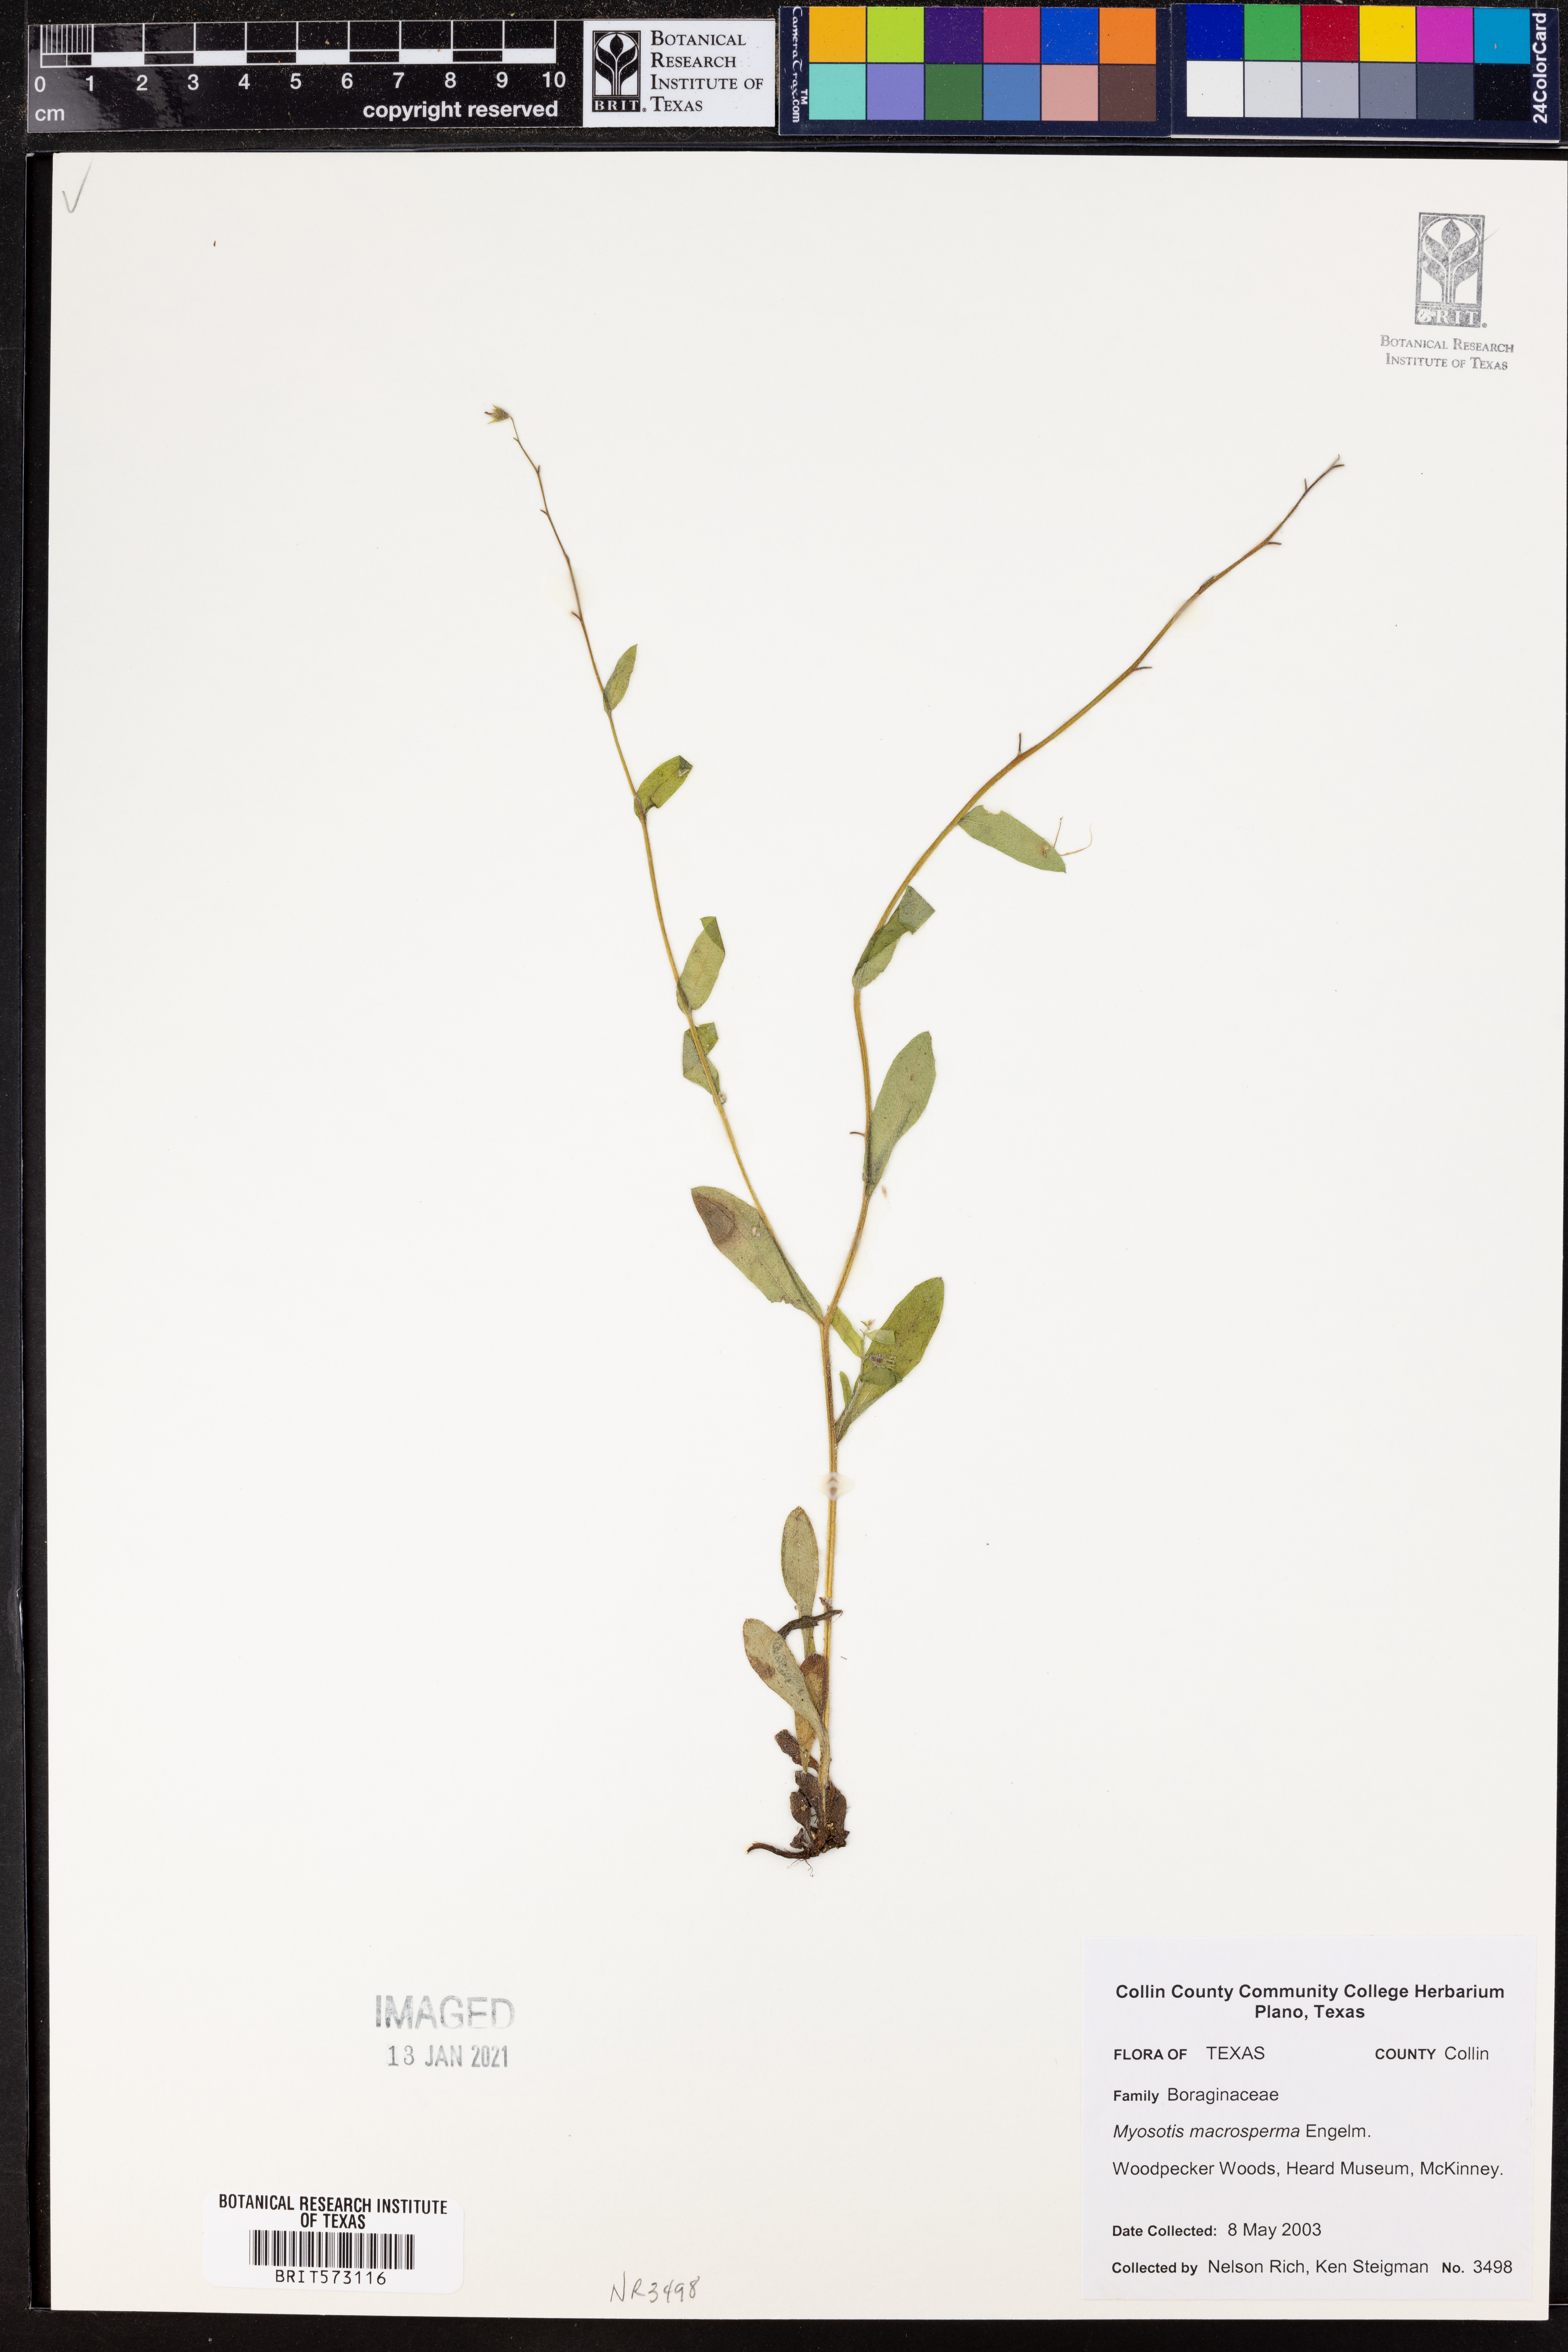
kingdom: Plantae
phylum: Tracheophyta
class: Magnoliopsida
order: Boraginales
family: Boraginaceae
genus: Myosotis
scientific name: Myosotis macrosperma
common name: Large-seed forget-me-not
